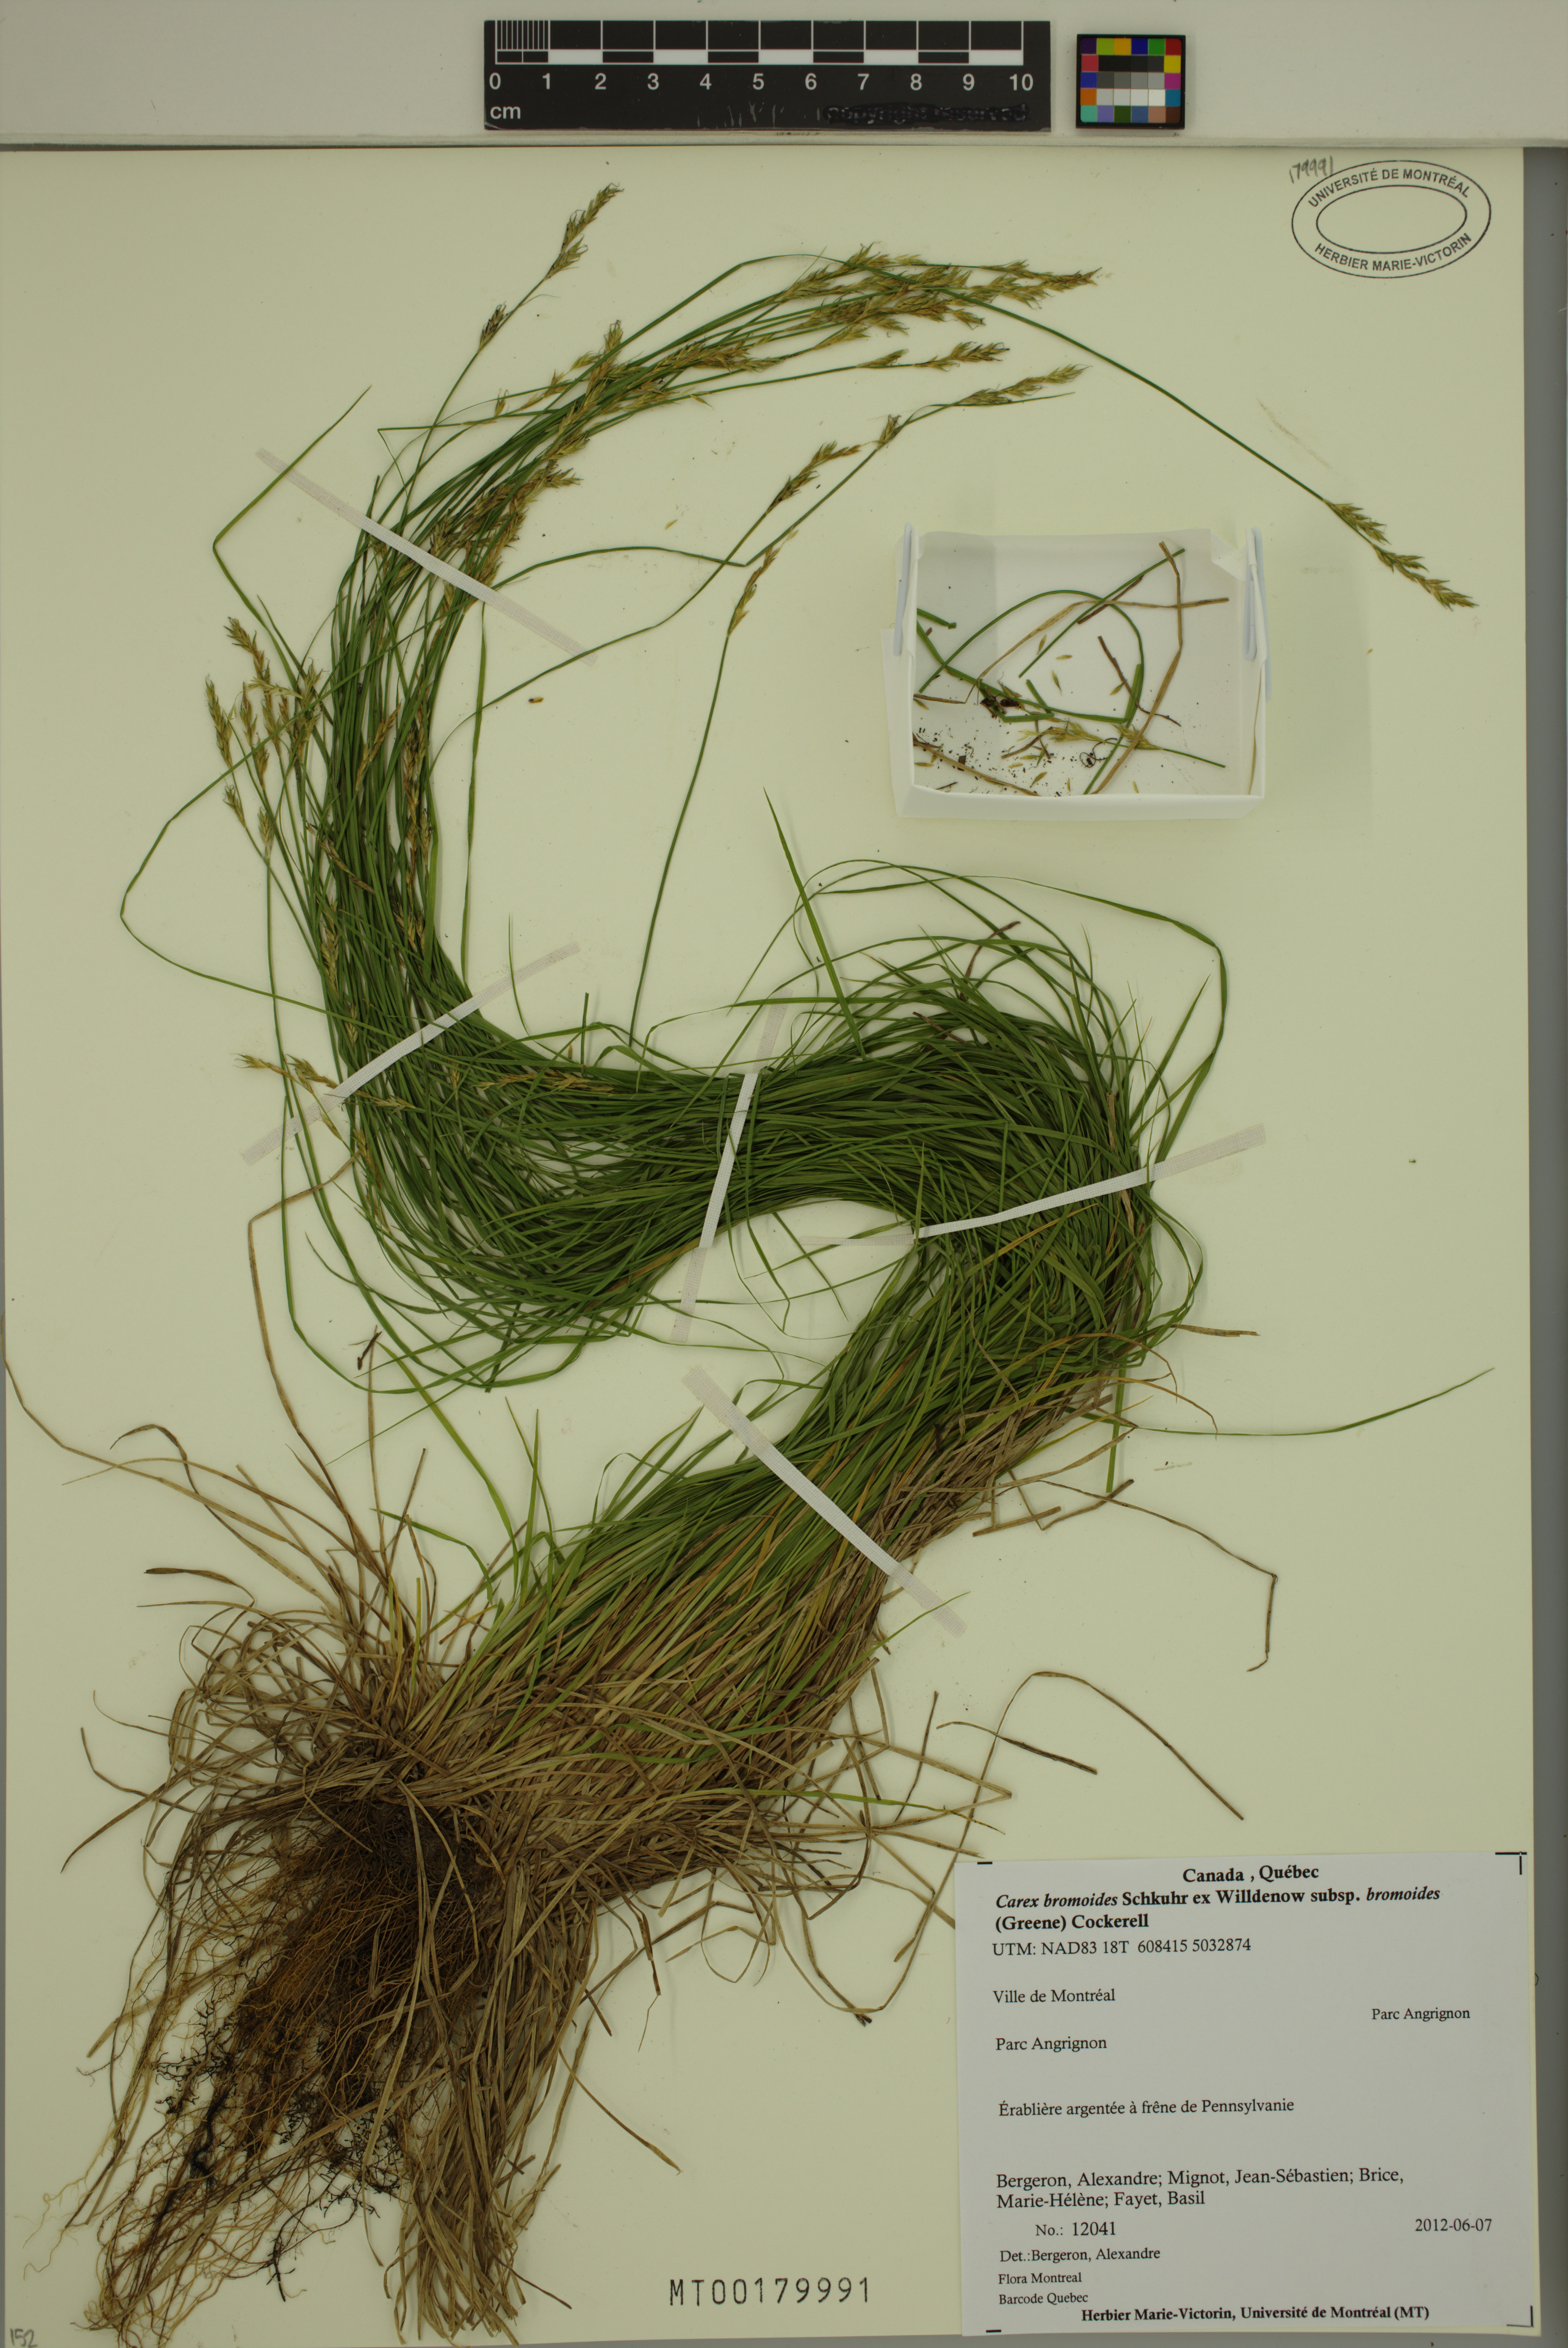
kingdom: Plantae
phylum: Tracheophyta
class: Liliopsida
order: Poales
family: Cyperaceae
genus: Carex
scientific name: Carex bromoides
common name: Brome hummock sedge
